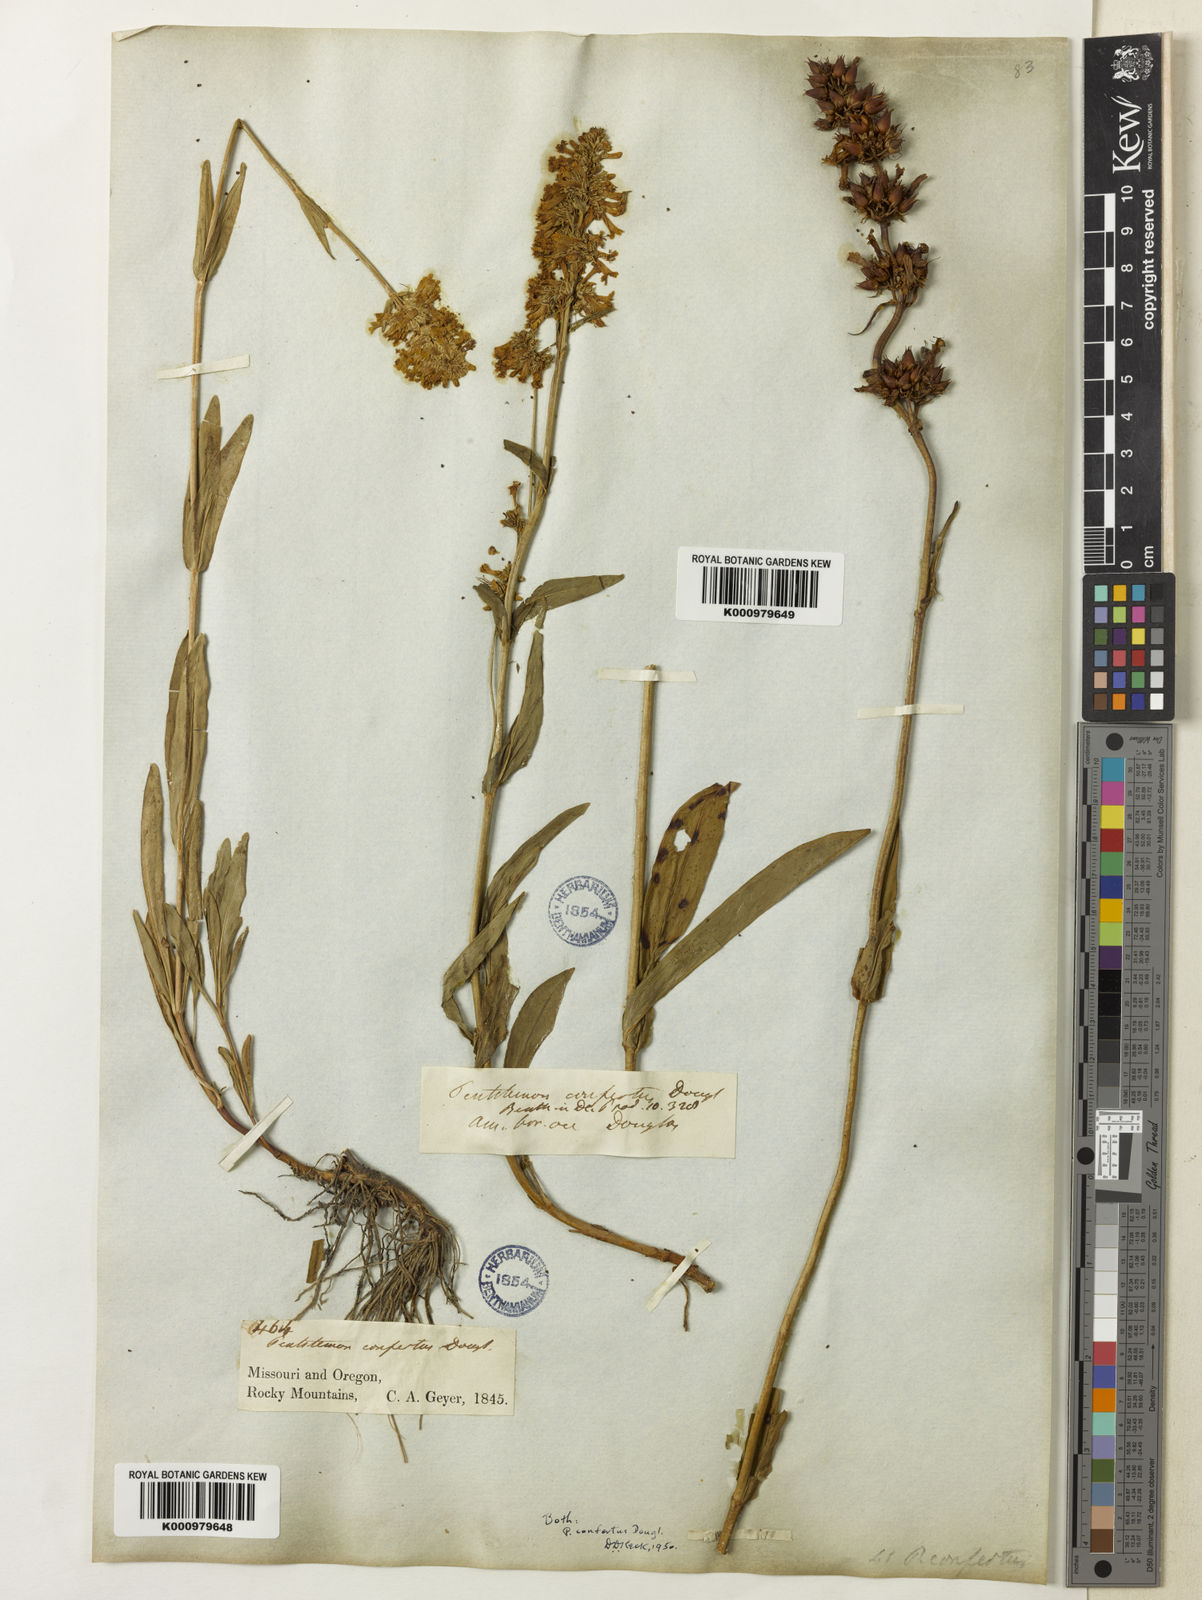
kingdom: Plantae
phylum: Tracheophyta
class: Magnoliopsida
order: Lamiales
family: Plantaginaceae
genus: Penstemon
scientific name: Penstemon
